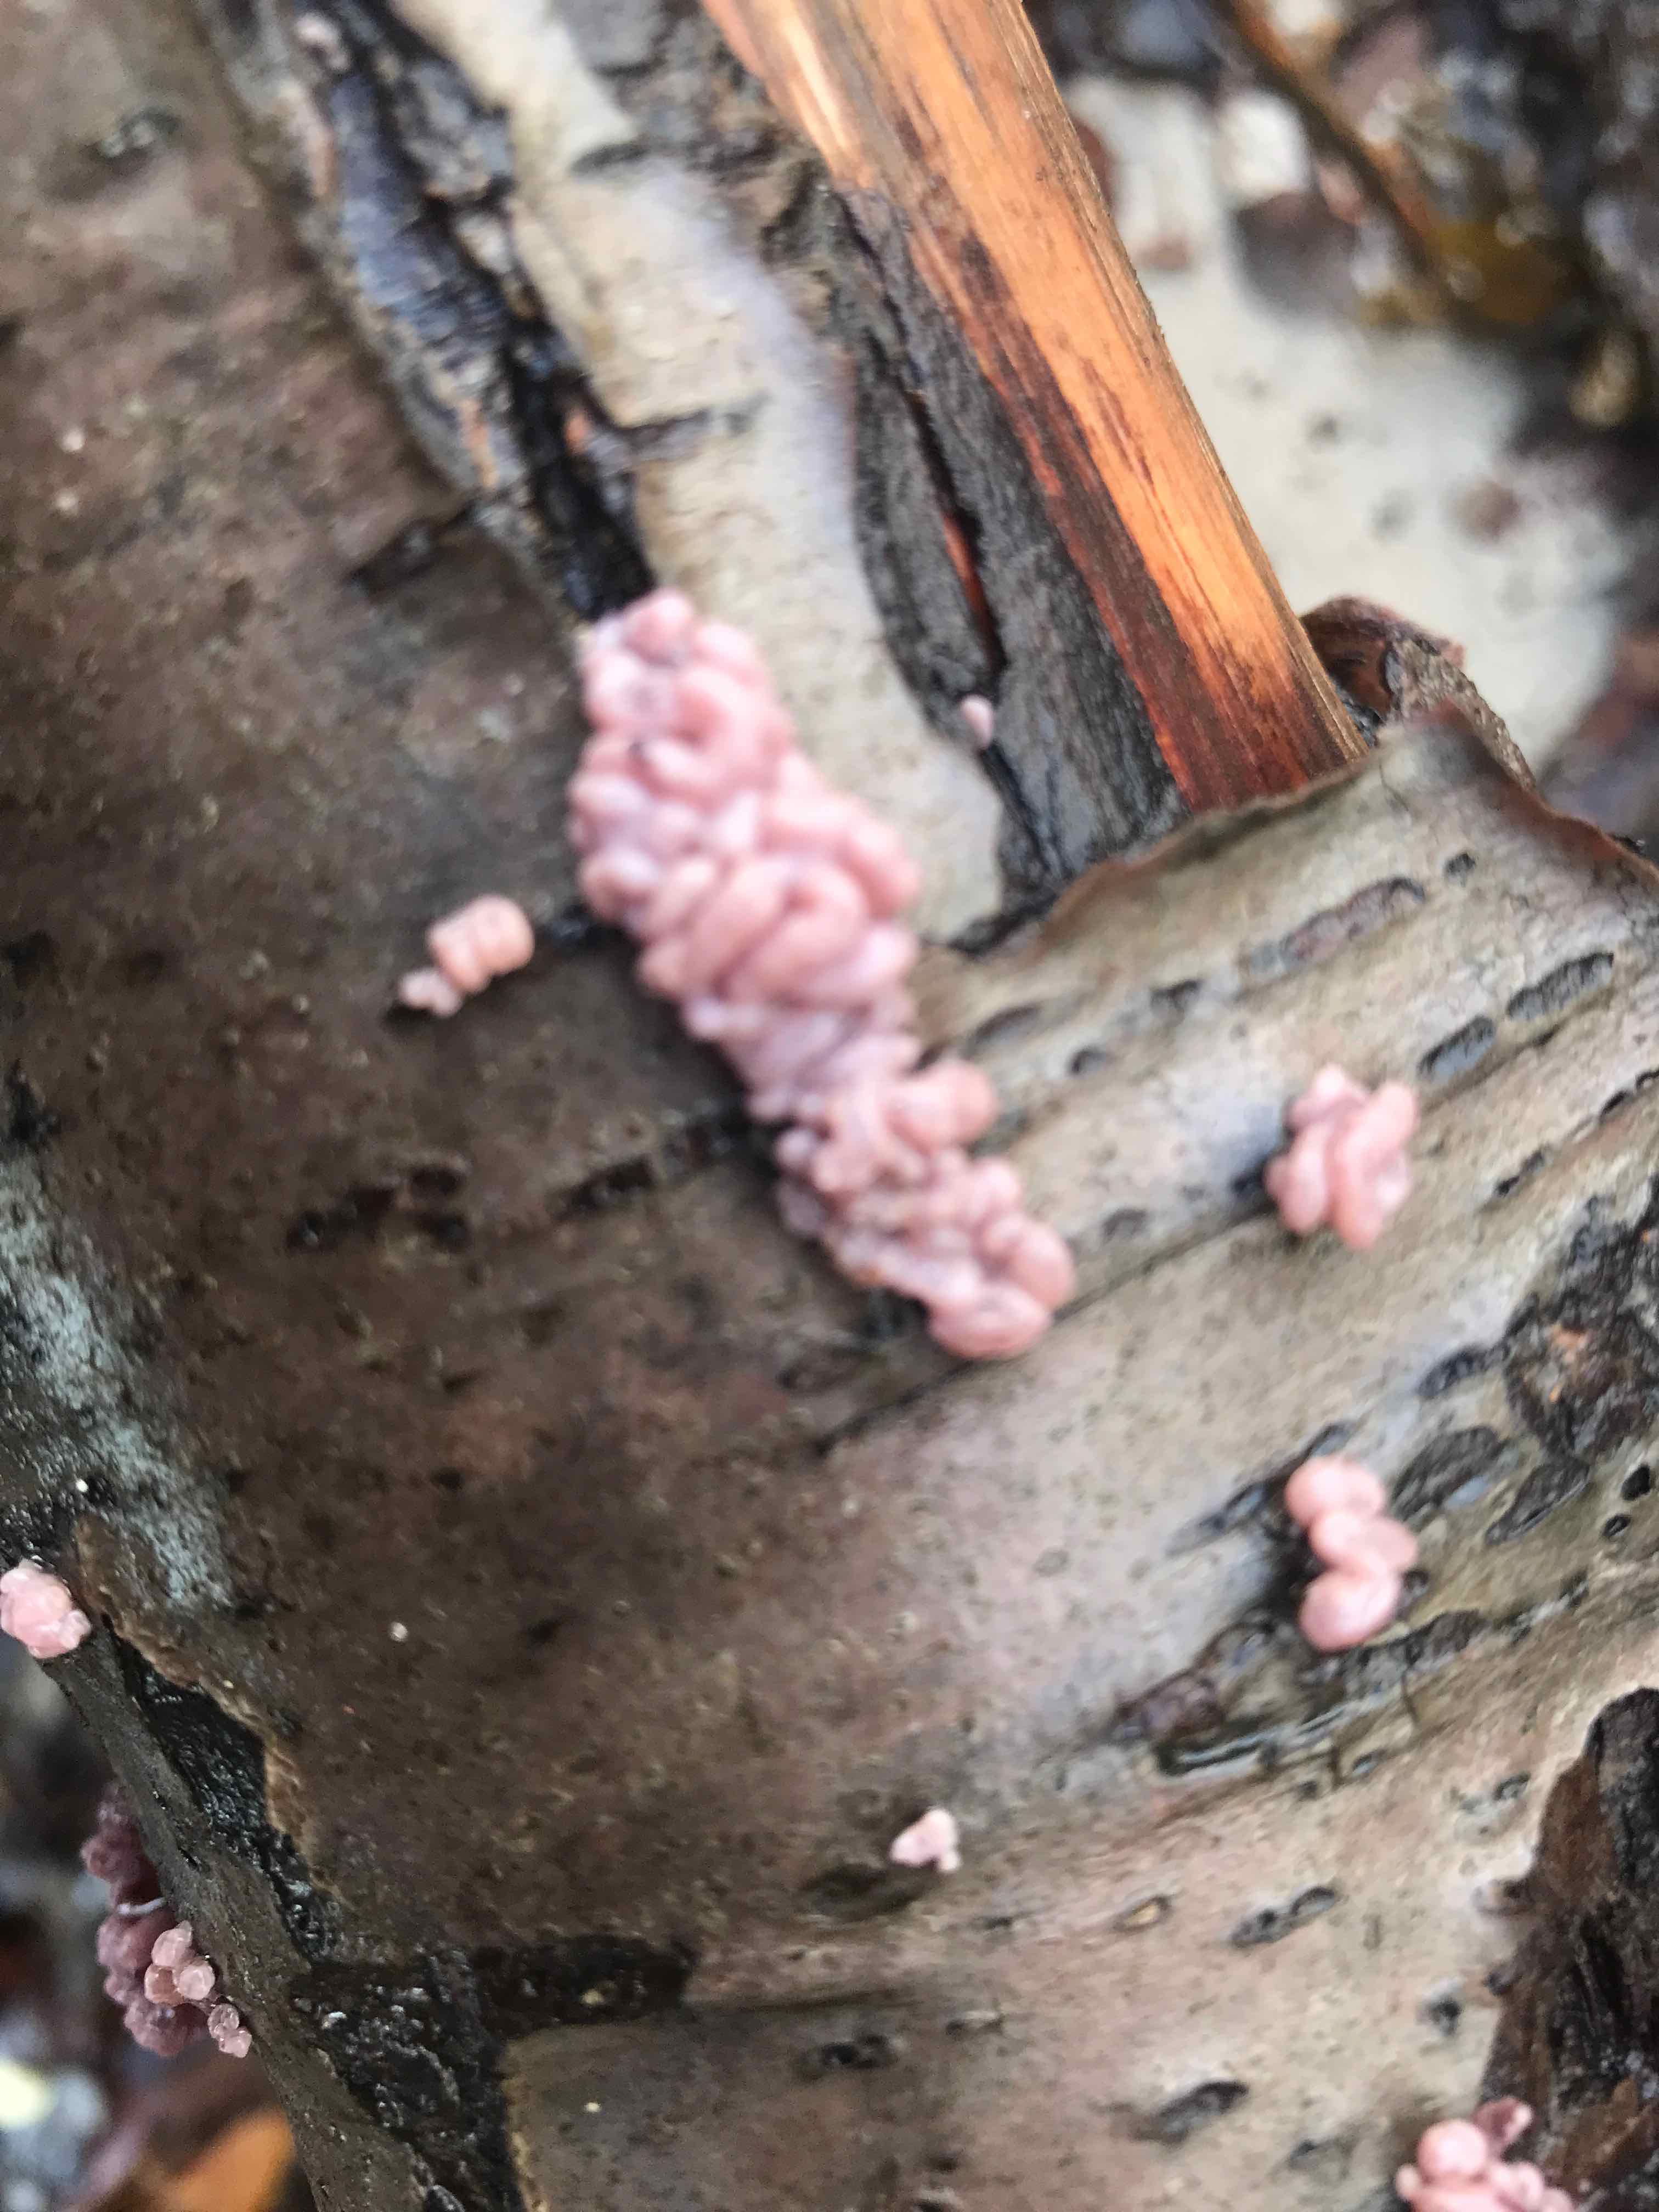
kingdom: Fungi
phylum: Ascomycota
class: Leotiomycetes
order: Helotiales
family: Gelatinodiscaceae
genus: Ascocoryne
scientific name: Ascocoryne sarcoides
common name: rødlilla sejskive
